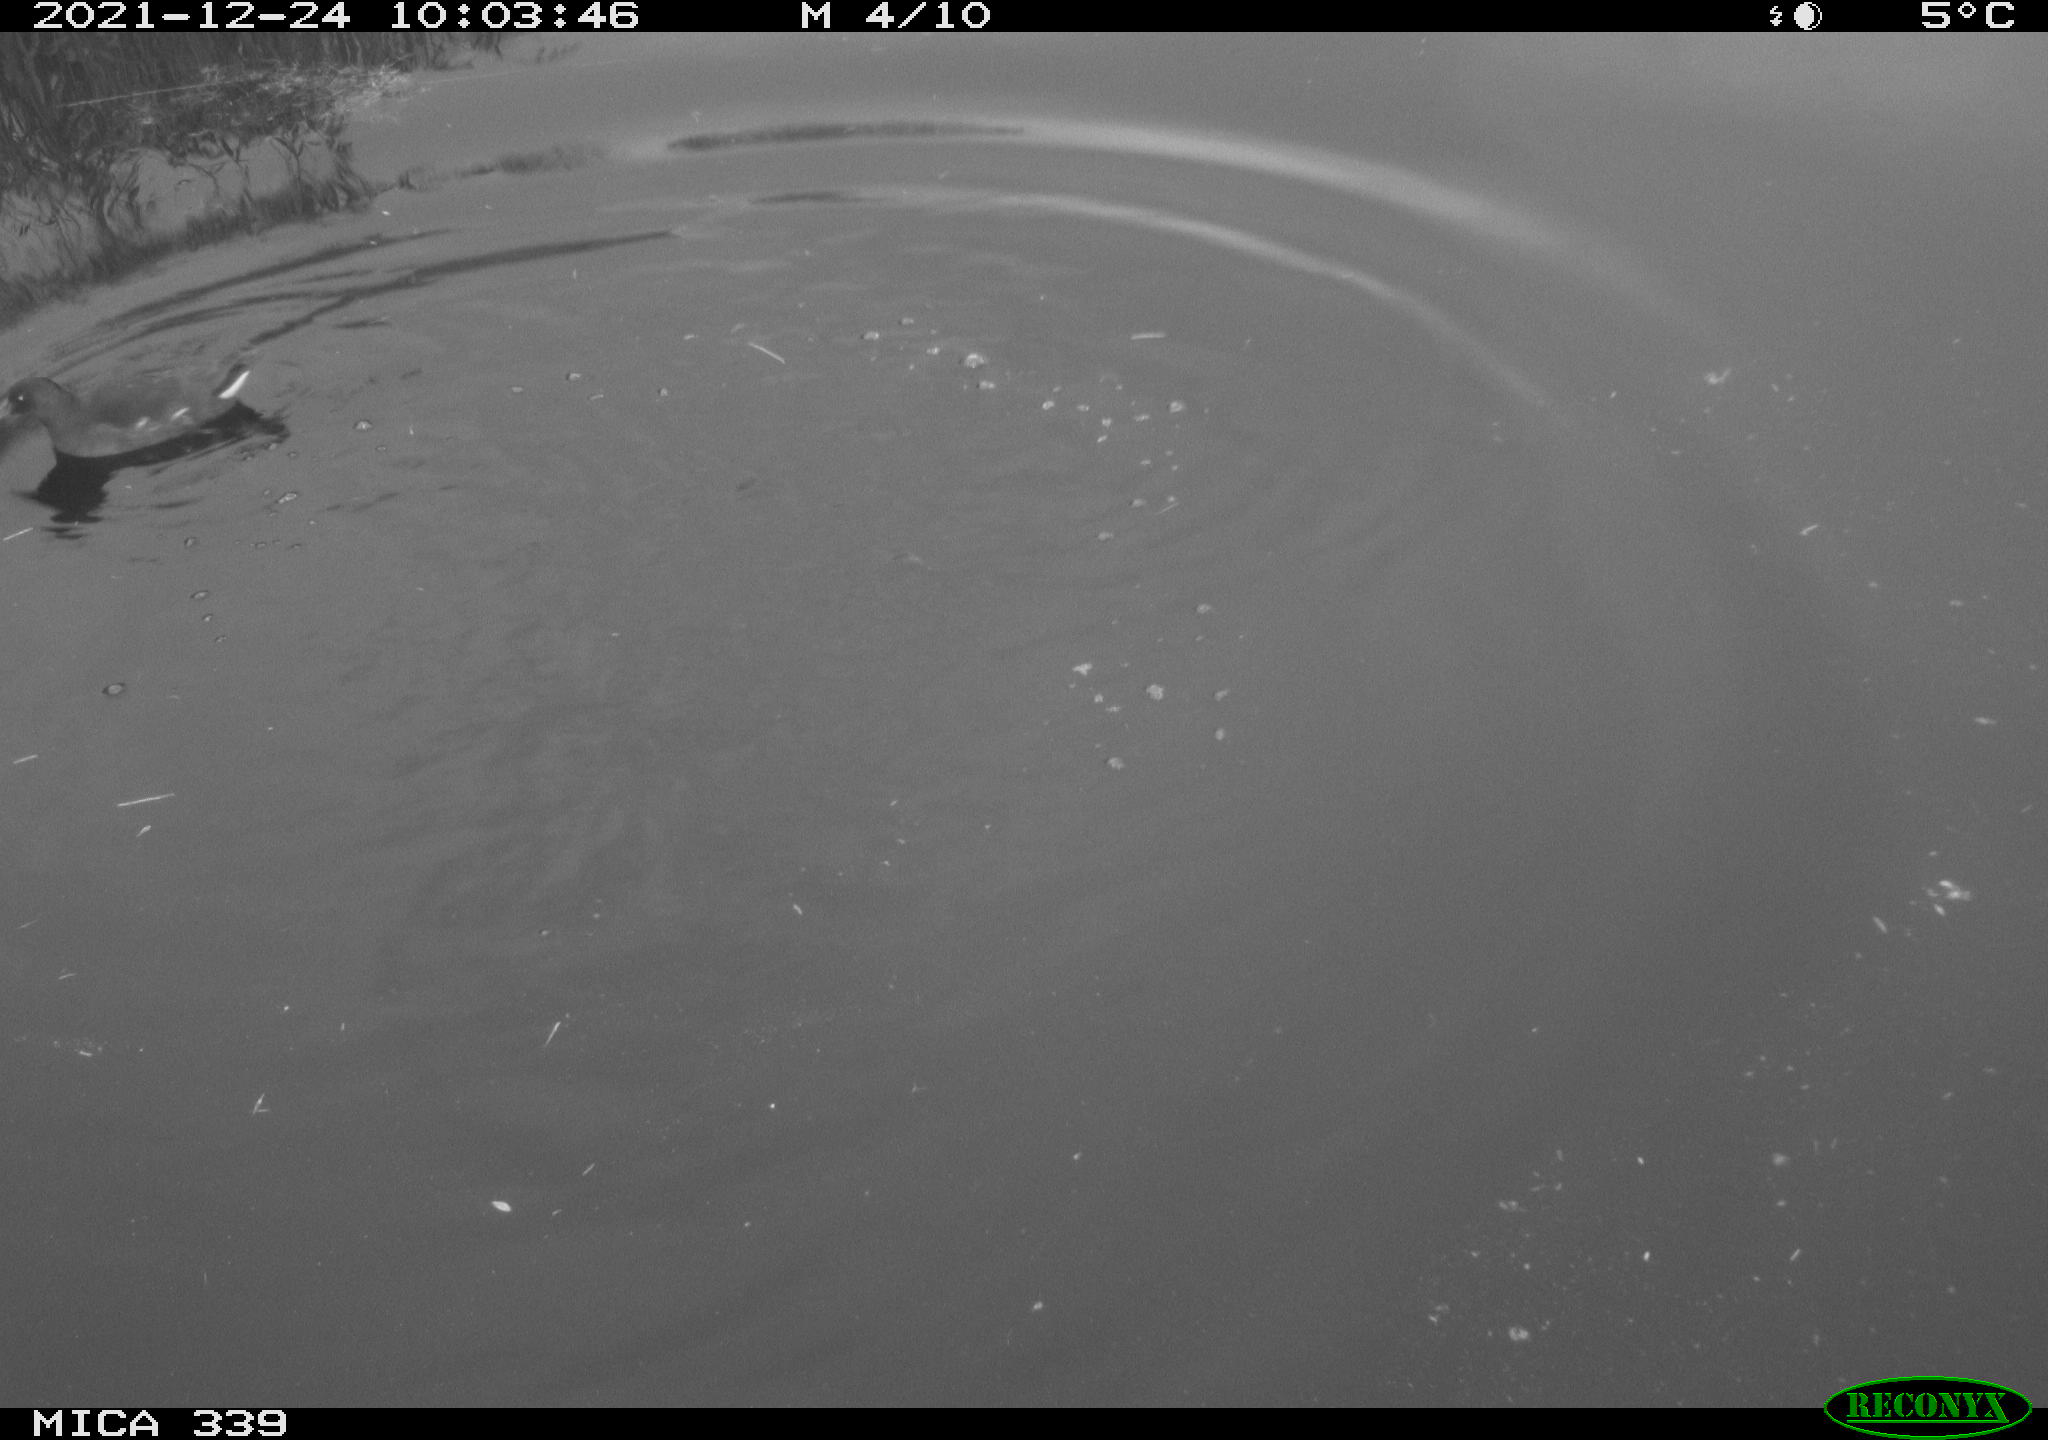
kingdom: Animalia
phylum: Chordata
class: Aves
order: Gruiformes
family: Rallidae
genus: Gallinula
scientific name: Gallinula chloropus
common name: Common moorhen
